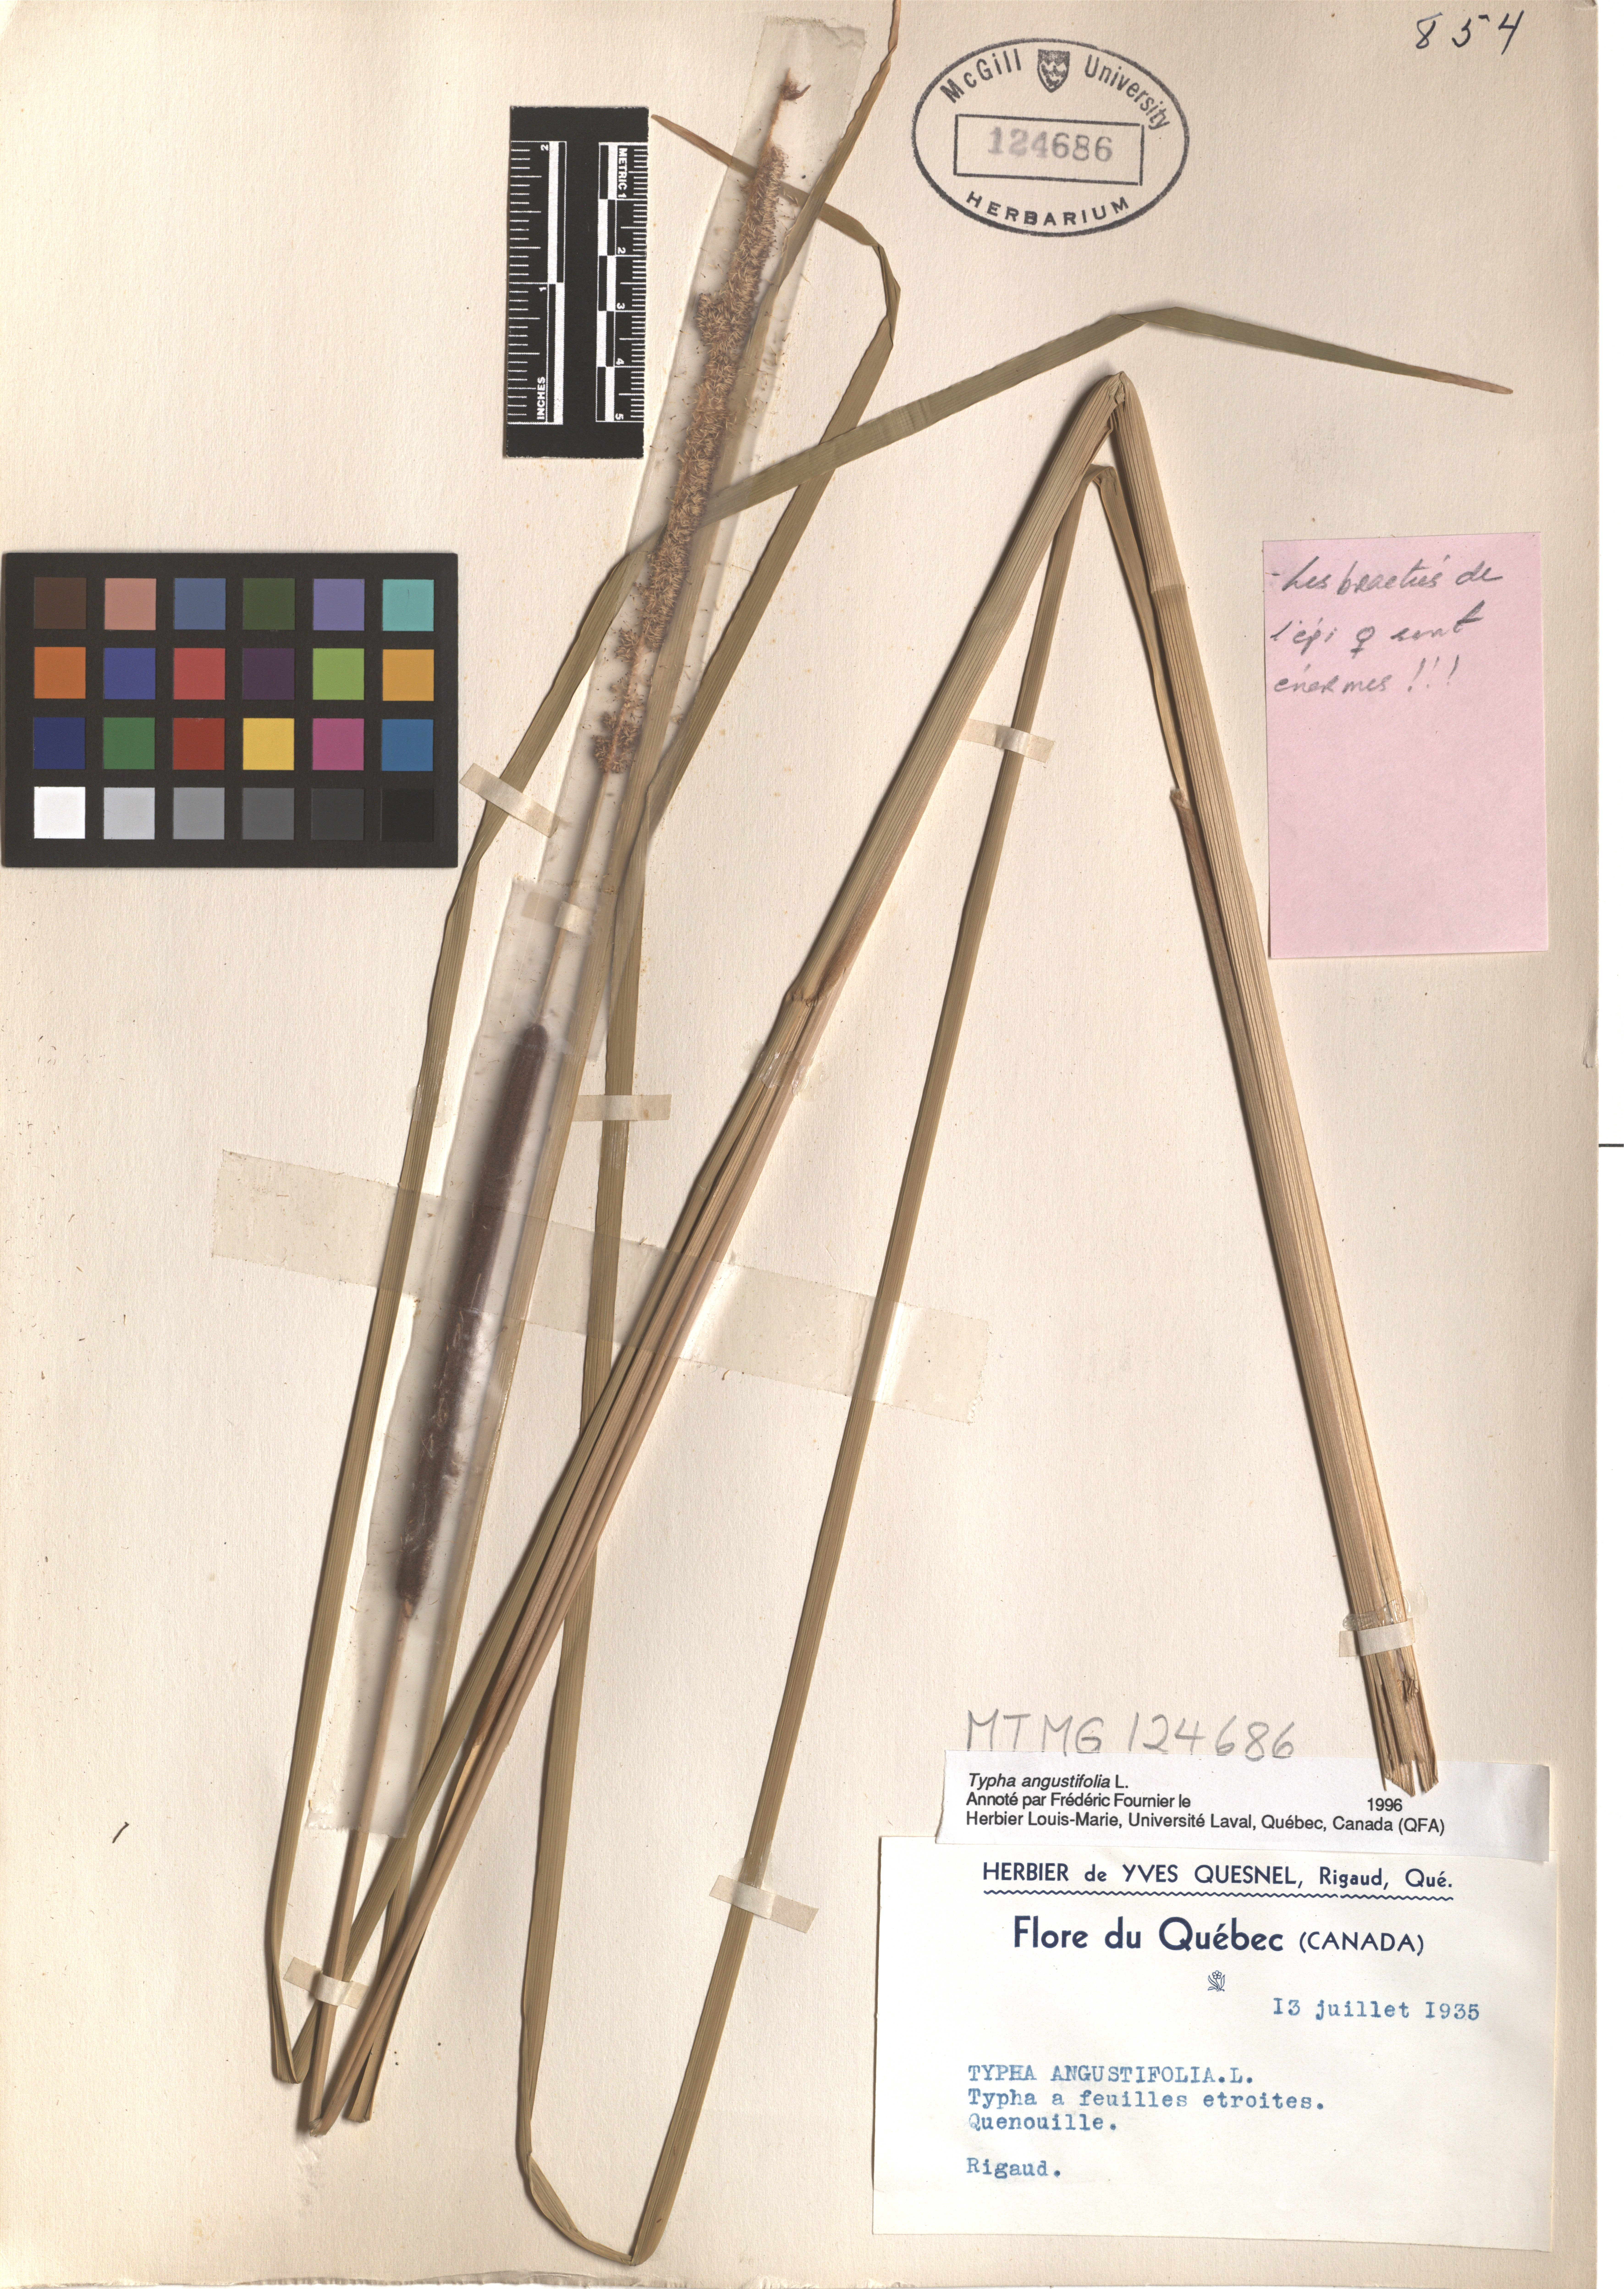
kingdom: Plantae
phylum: Tracheophyta
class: Liliopsida
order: Poales
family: Typhaceae
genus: Typha
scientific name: Typha angustifolia
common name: Lesser bulrush
